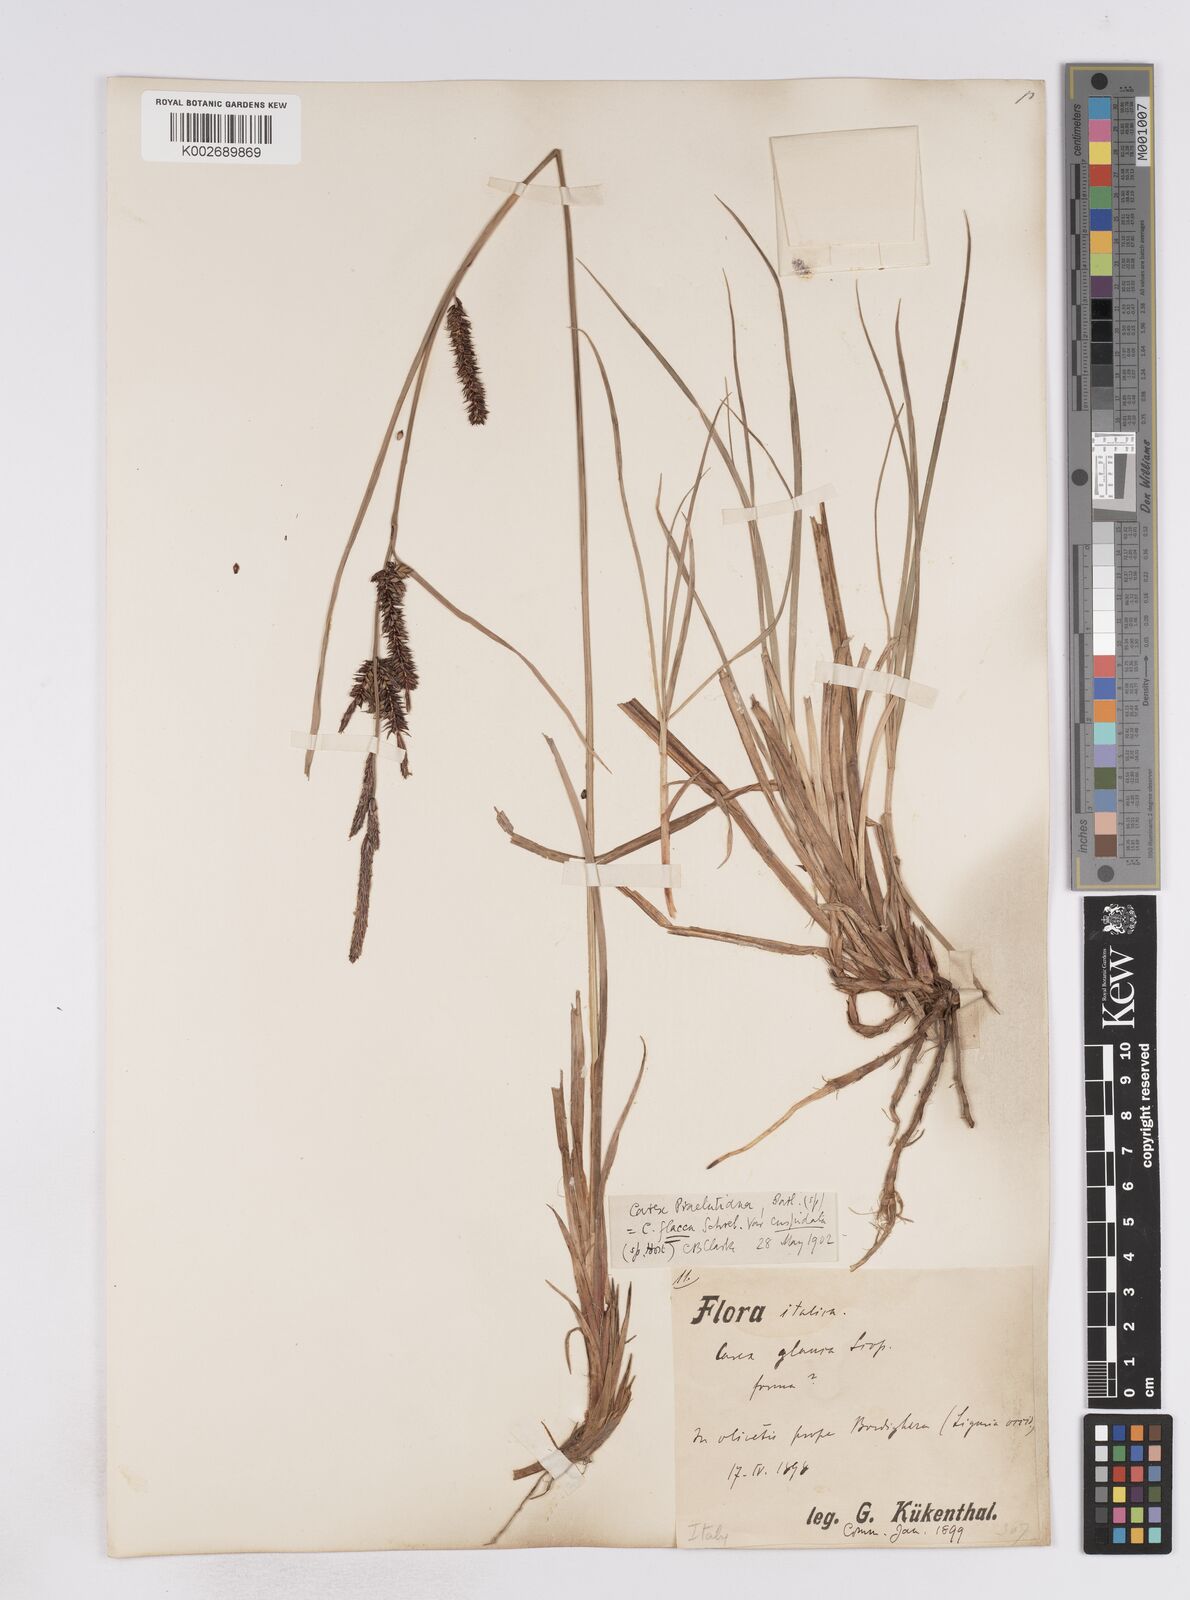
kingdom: Plantae
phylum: Tracheophyta
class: Liliopsida
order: Poales
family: Cyperaceae
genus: Carex
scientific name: Carex flacca
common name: Glaucous sedge
